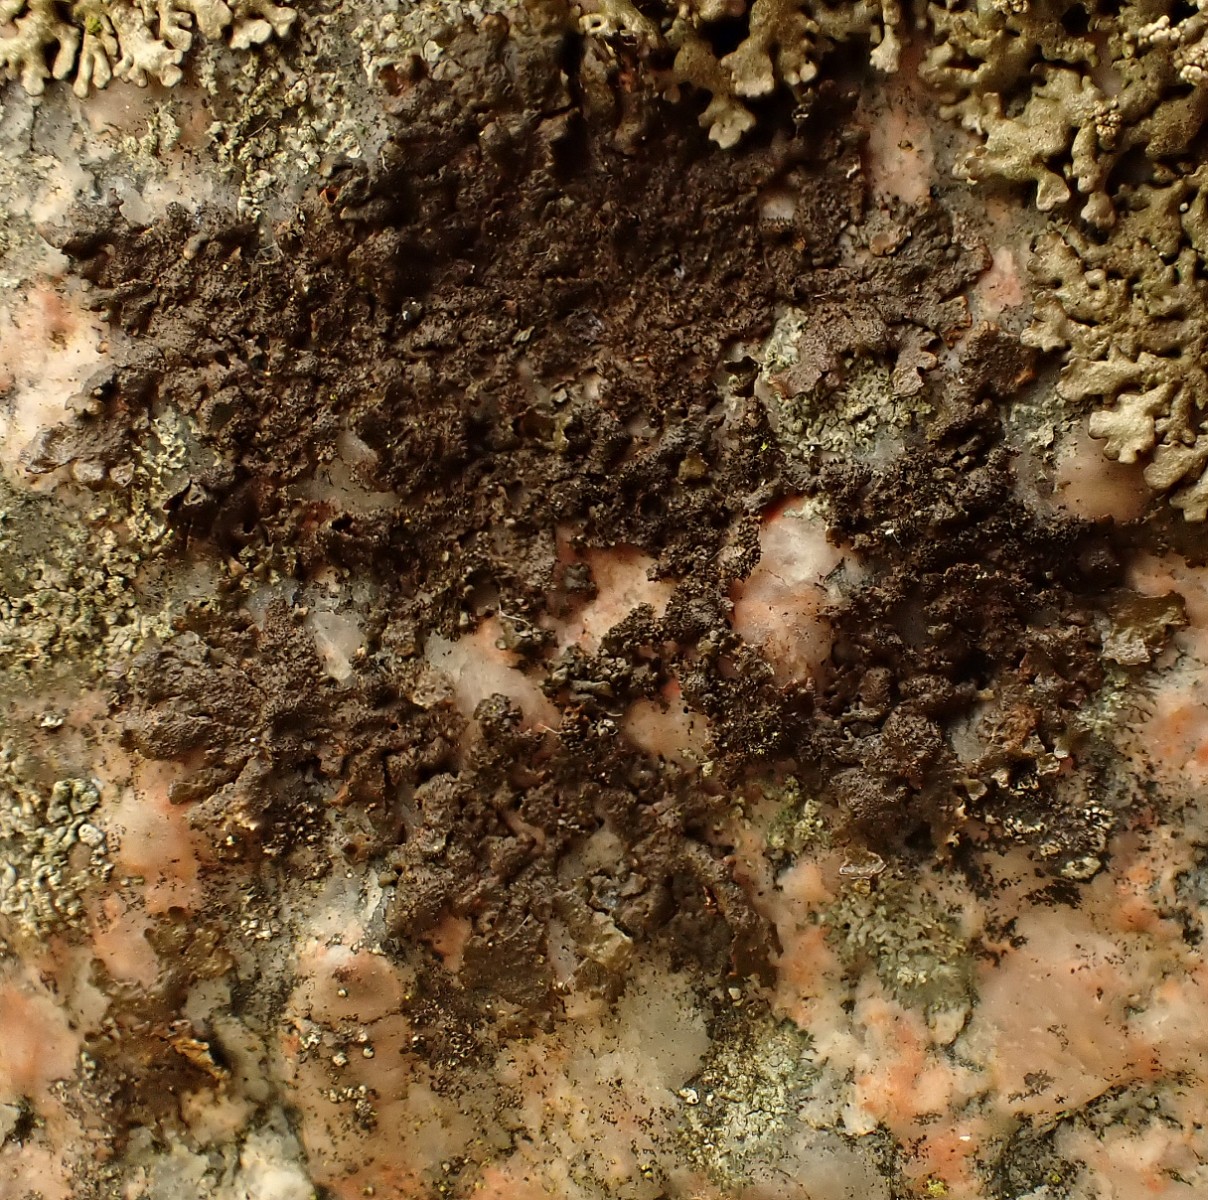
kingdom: Fungi
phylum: Ascomycota
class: Lecanoromycetes
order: Lecanorales
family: Parmeliaceae
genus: Melanelixia
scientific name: Melanelixia fuliginosa
